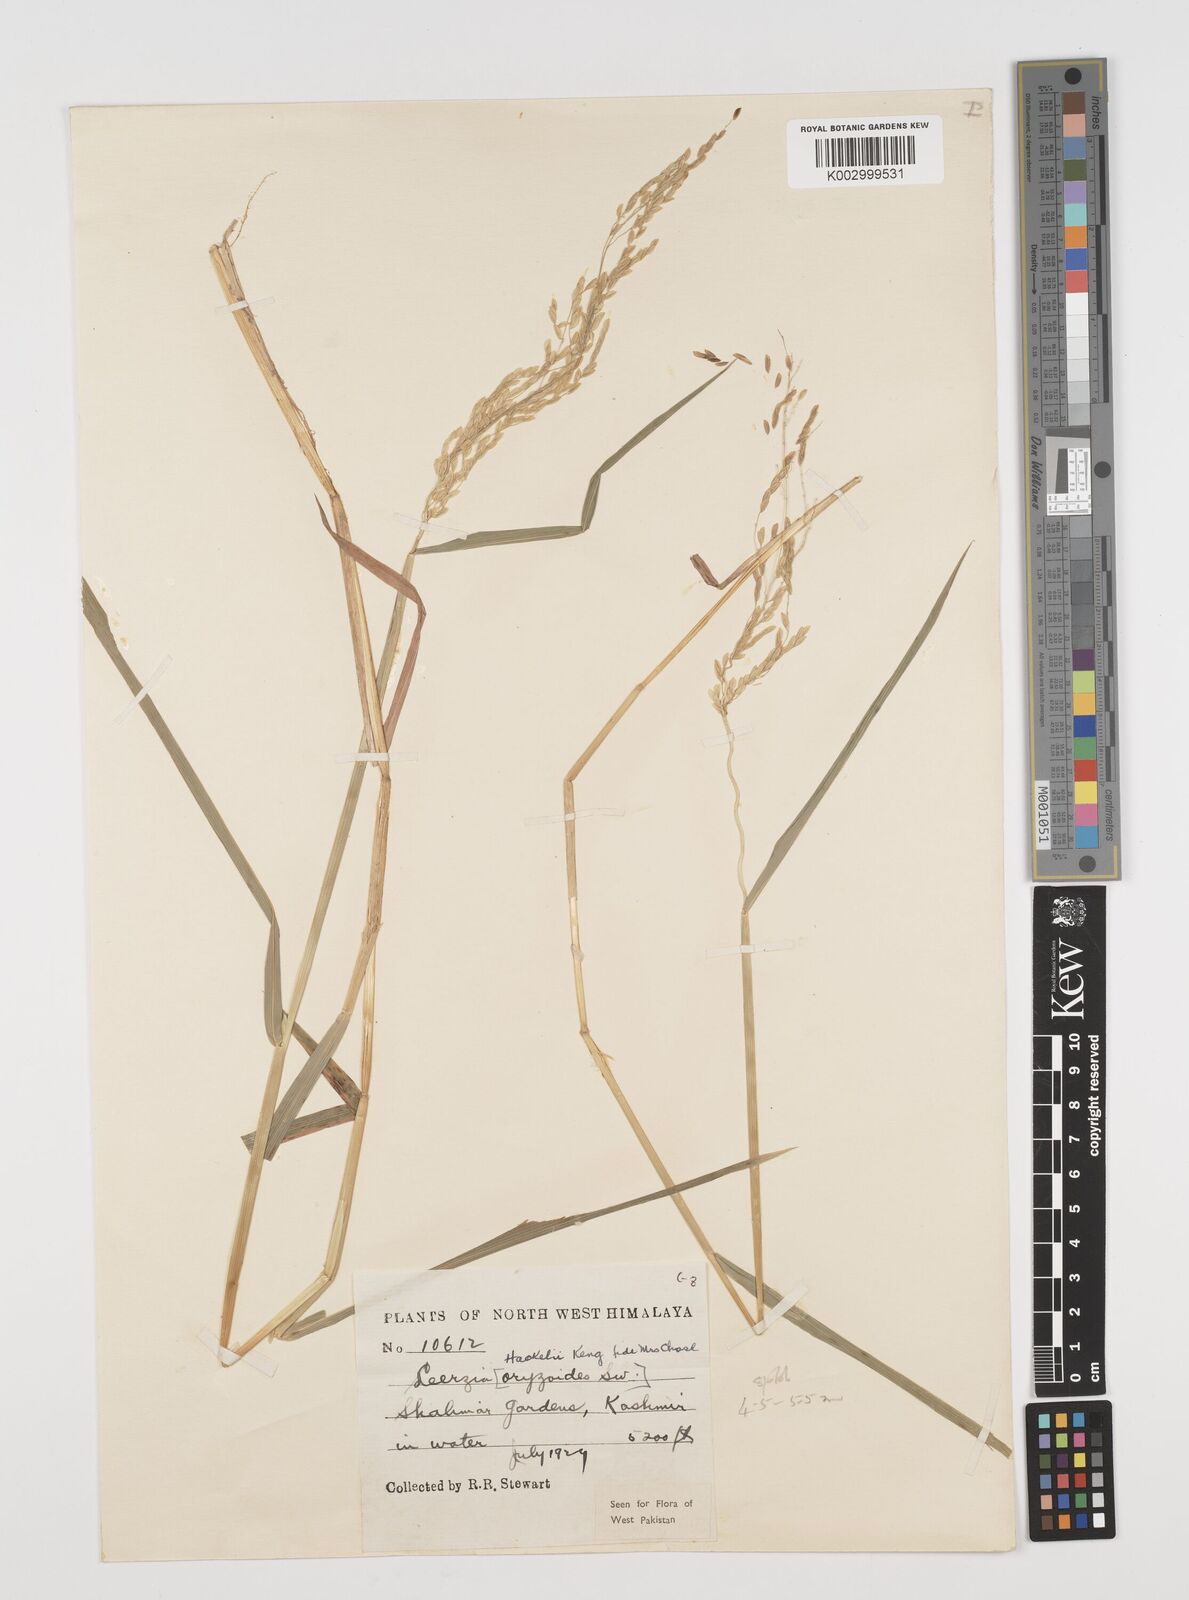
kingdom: Plantae
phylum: Tracheophyta
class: Liliopsida
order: Poales
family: Poaceae
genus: Leersia
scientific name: Leersia oryzoides
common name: Cut-grass
